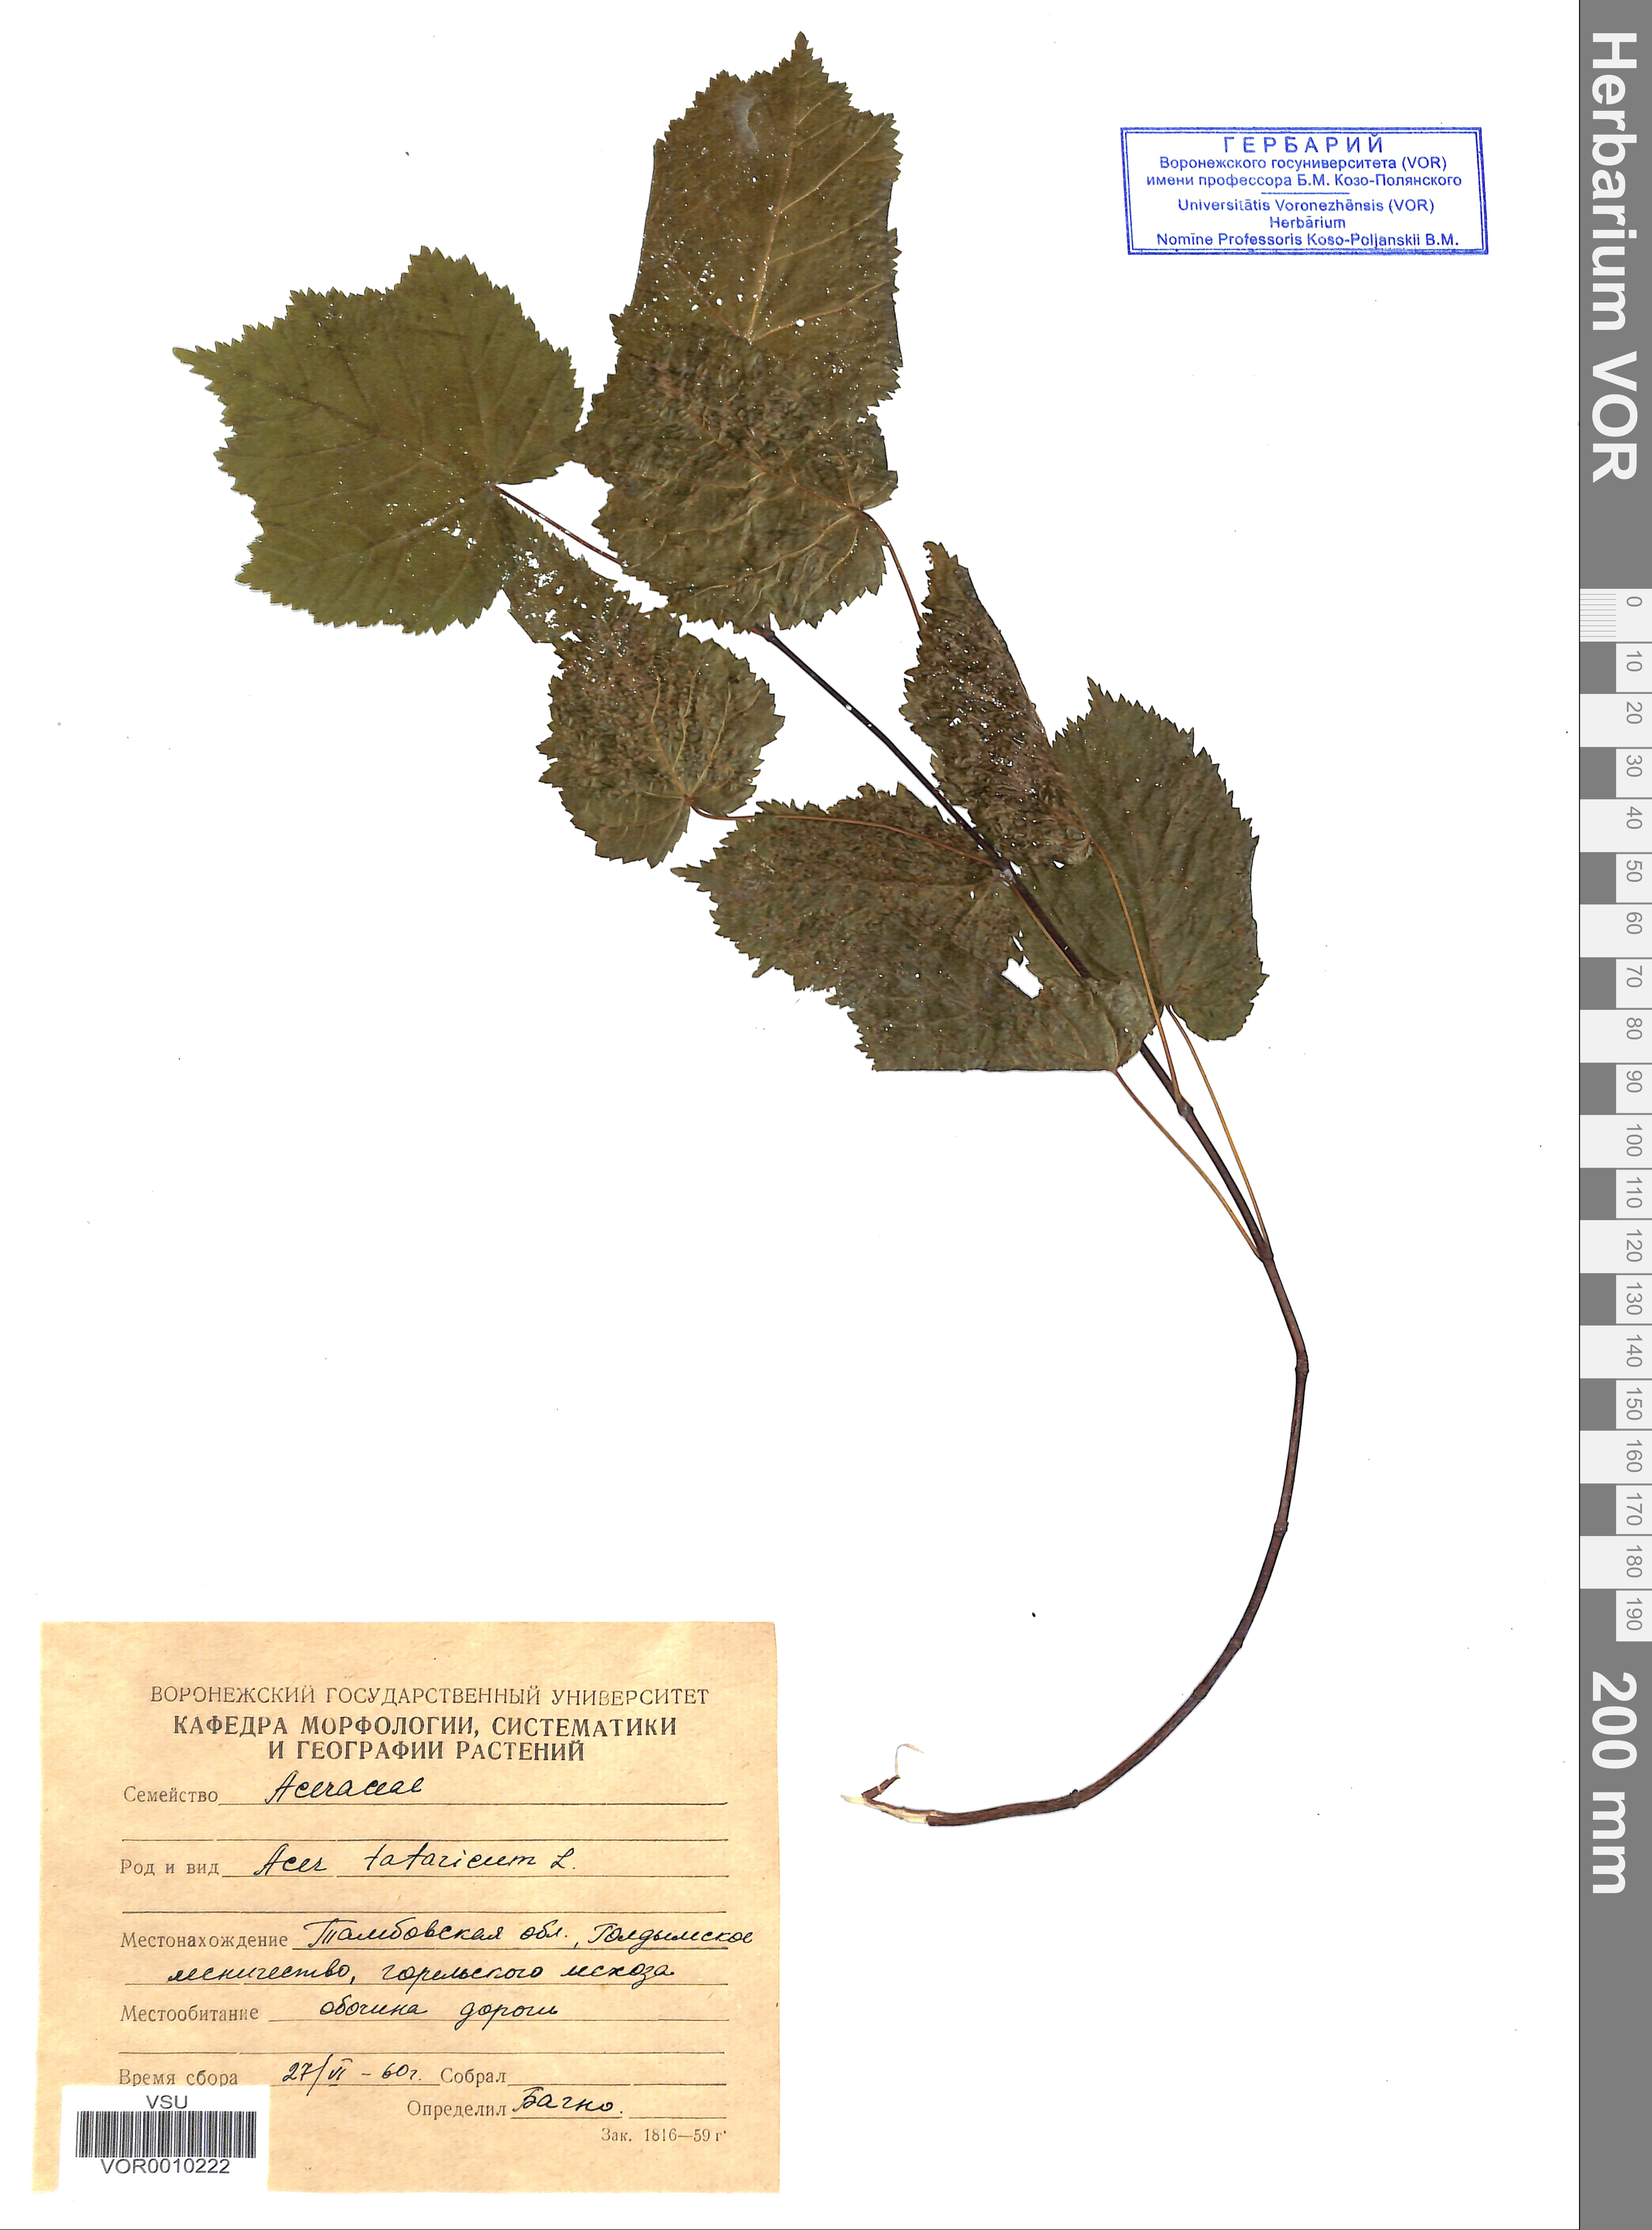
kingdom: Plantae
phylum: Tracheophyta
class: Magnoliopsida
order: Sapindales
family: Sapindaceae
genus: Acer
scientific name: Acer tataricum
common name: Tartar maple
